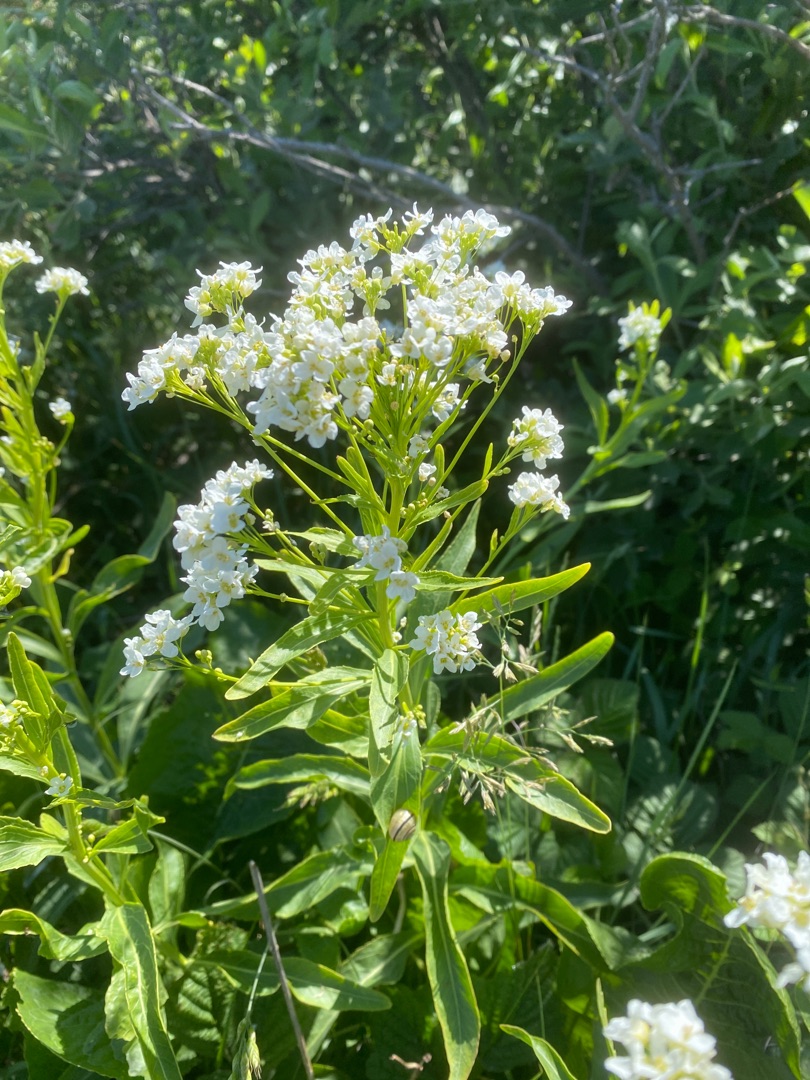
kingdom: Plantae
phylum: Tracheophyta
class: Magnoliopsida
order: Brassicales
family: Brassicaceae
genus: Armoracia
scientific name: Armoracia rusticana
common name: Peberrod
